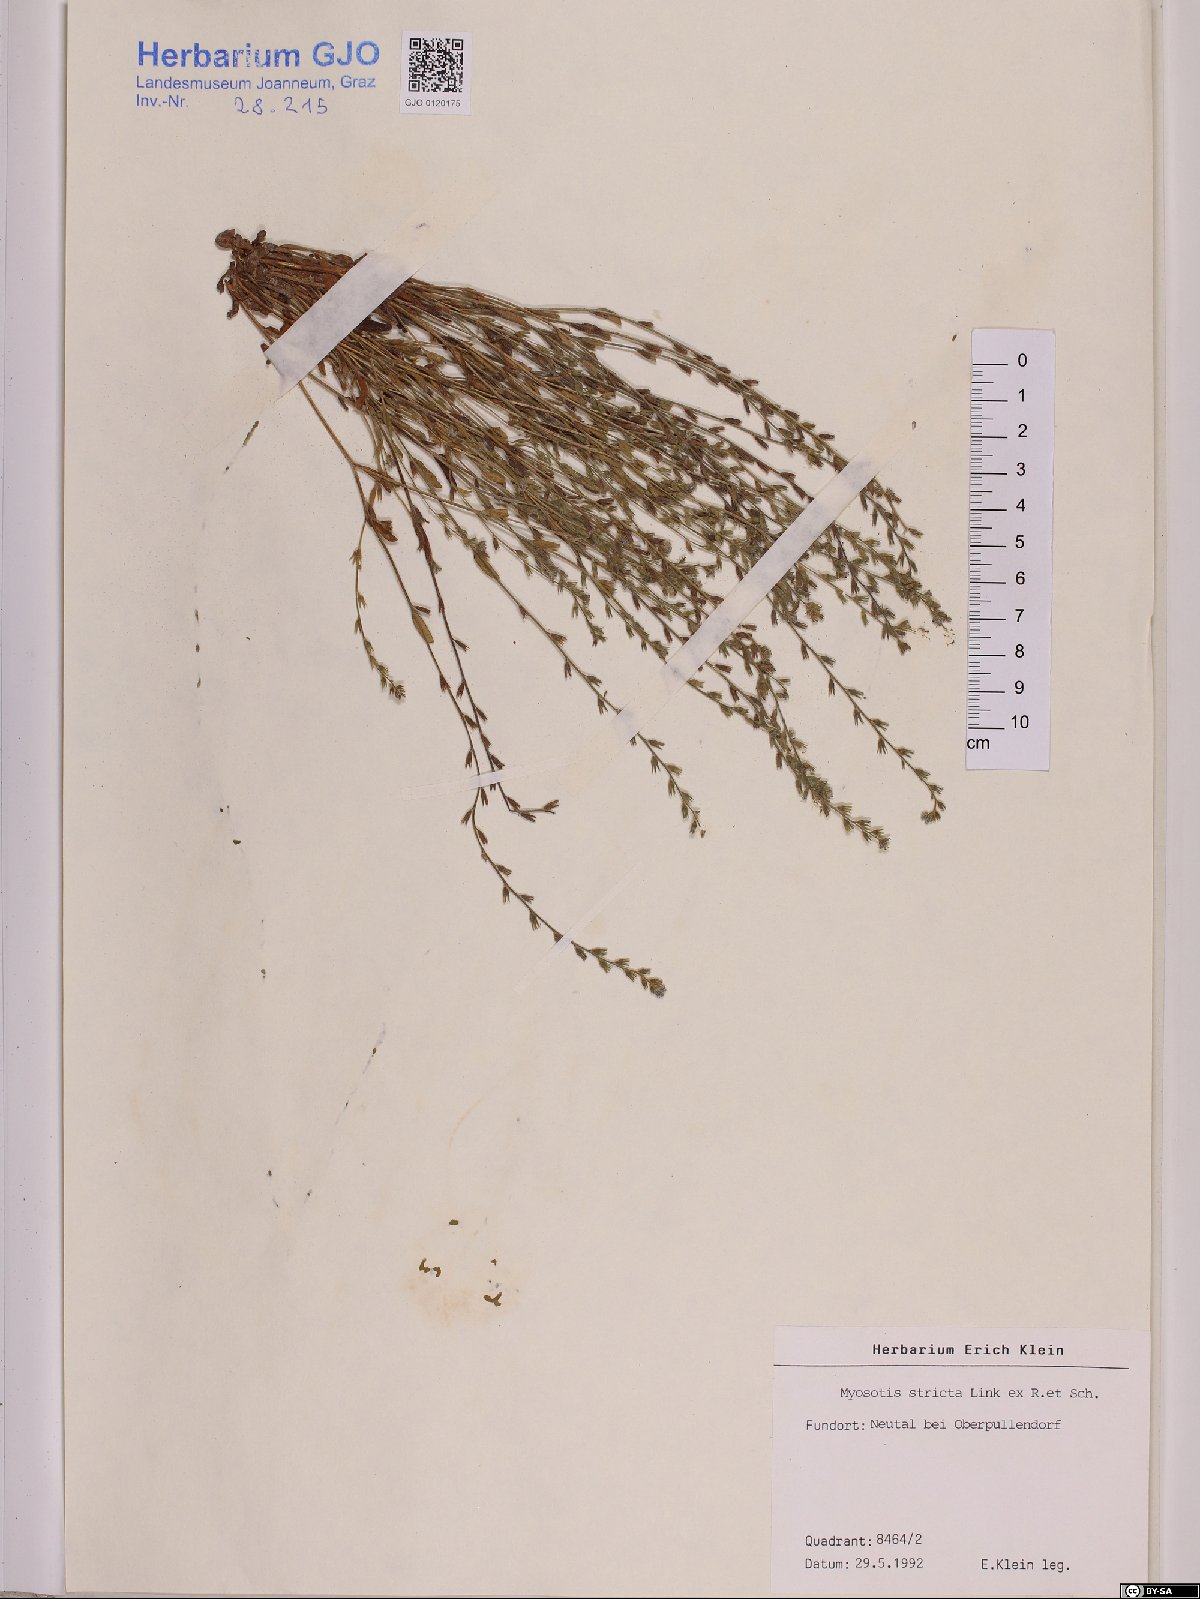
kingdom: Plantae
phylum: Tracheophyta
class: Magnoliopsida
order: Boraginales
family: Boraginaceae
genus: Myosotis
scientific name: Myosotis stricta
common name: Strict forget-me-not
